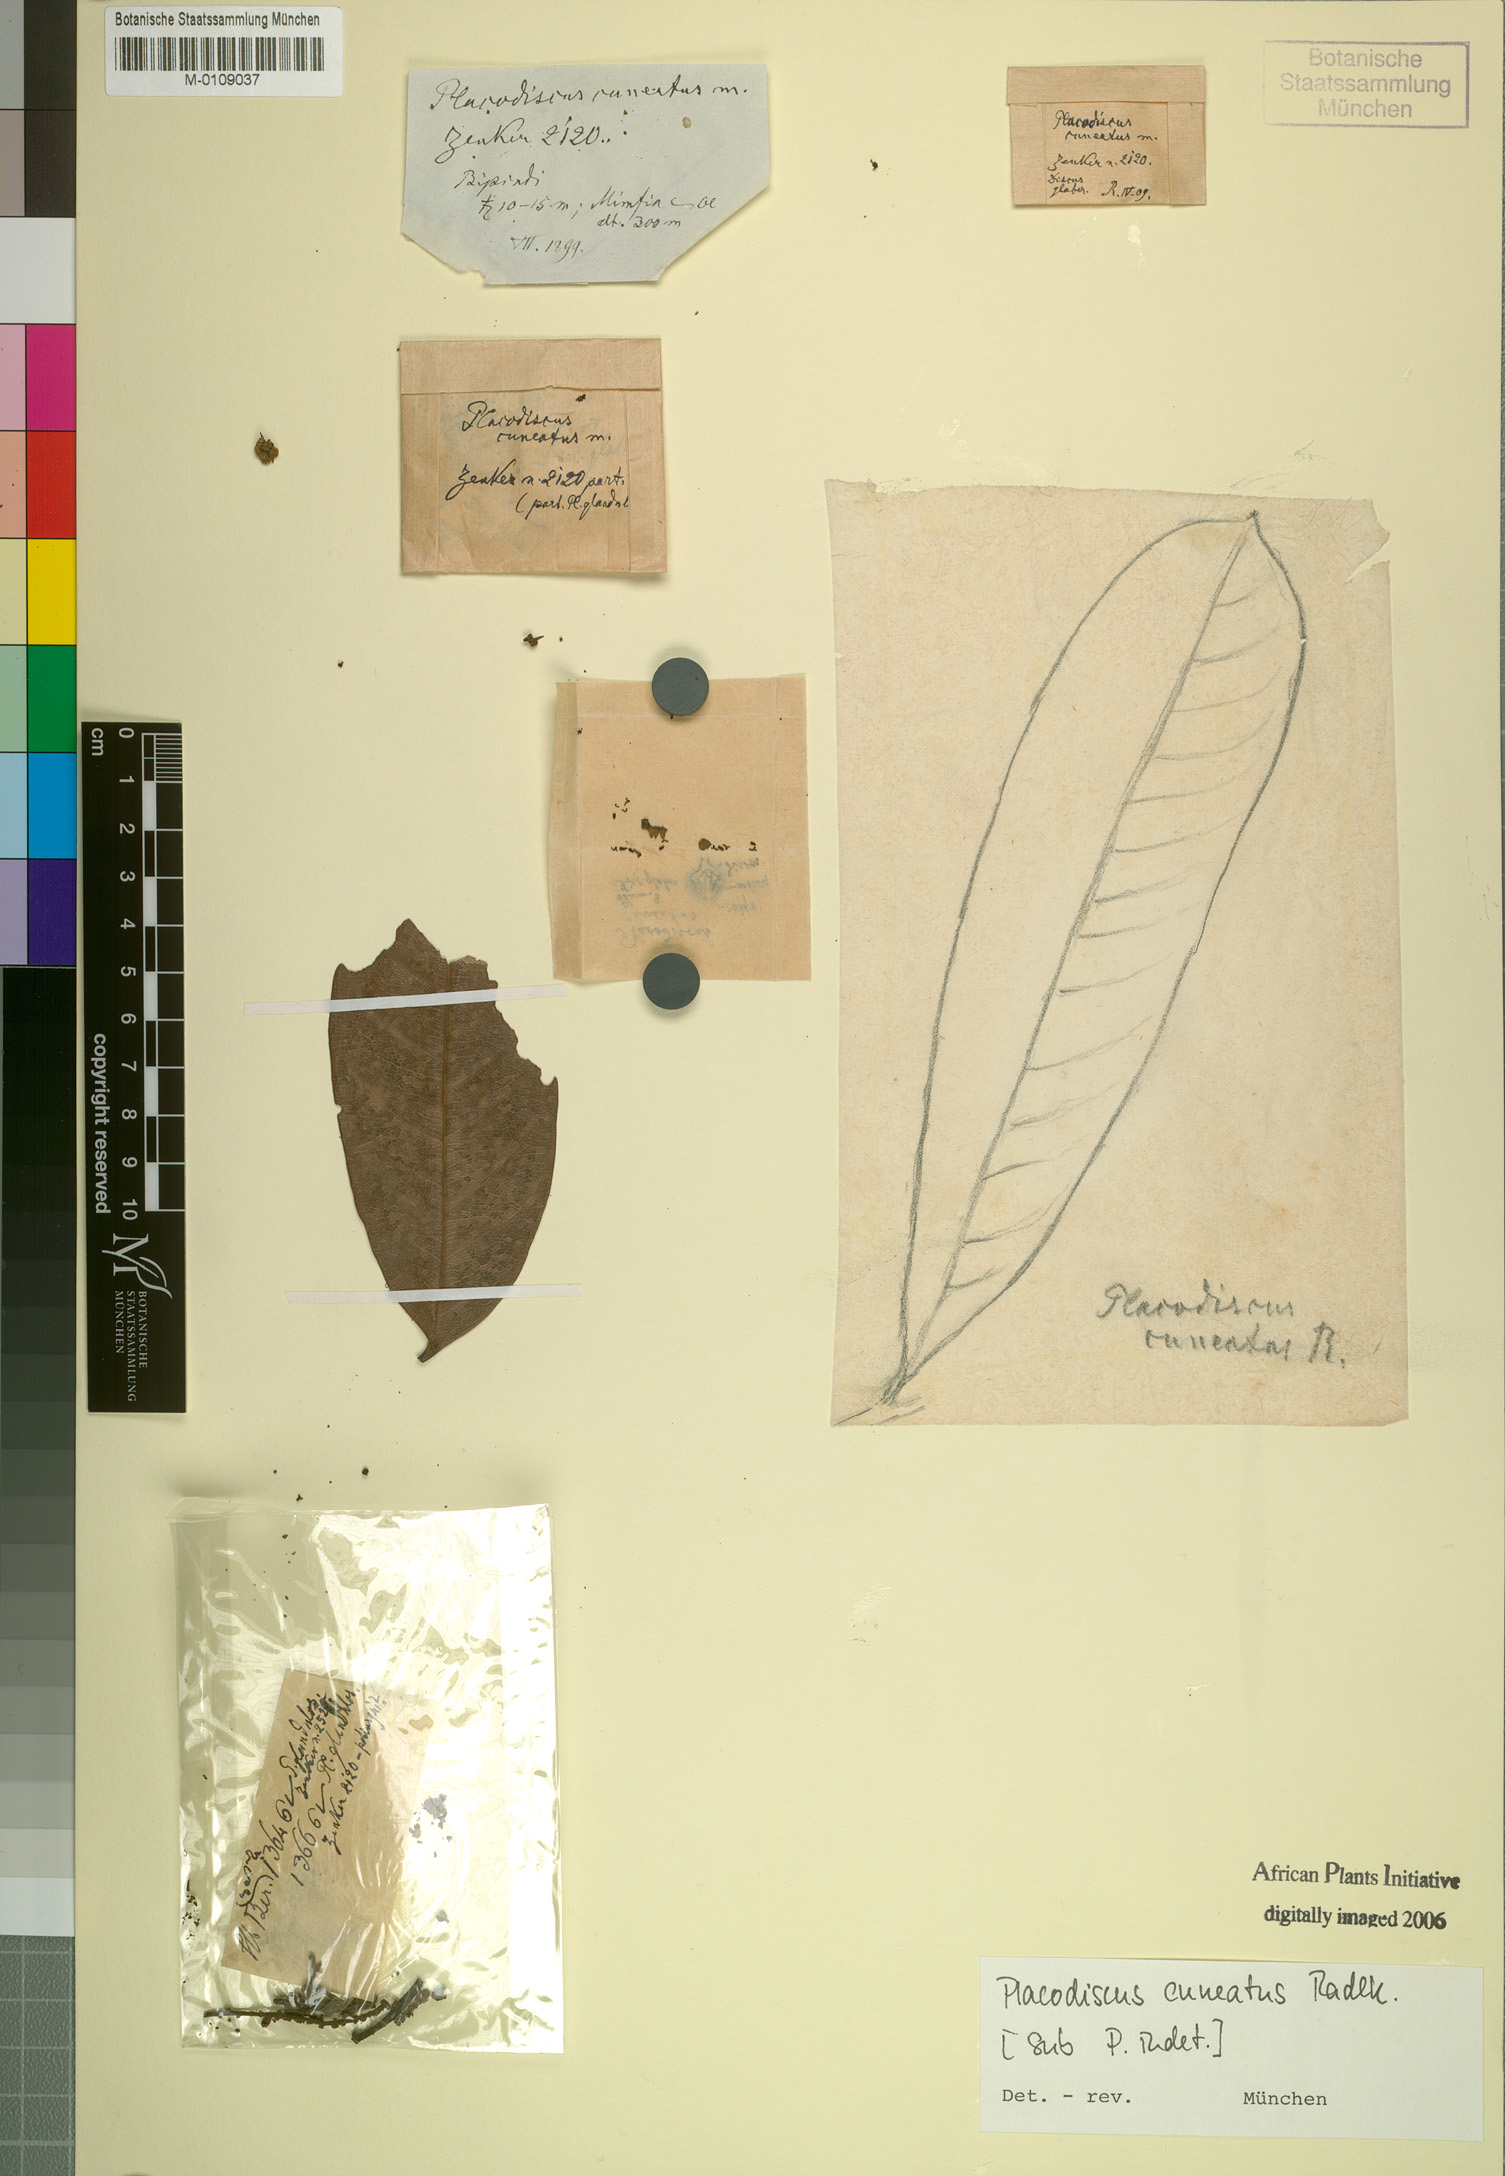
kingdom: Plantae
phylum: Tracheophyta
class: Magnoliopsida
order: Sapindales
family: Sapindaceae
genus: Placodiscus
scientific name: Placodiscus angustifolius
